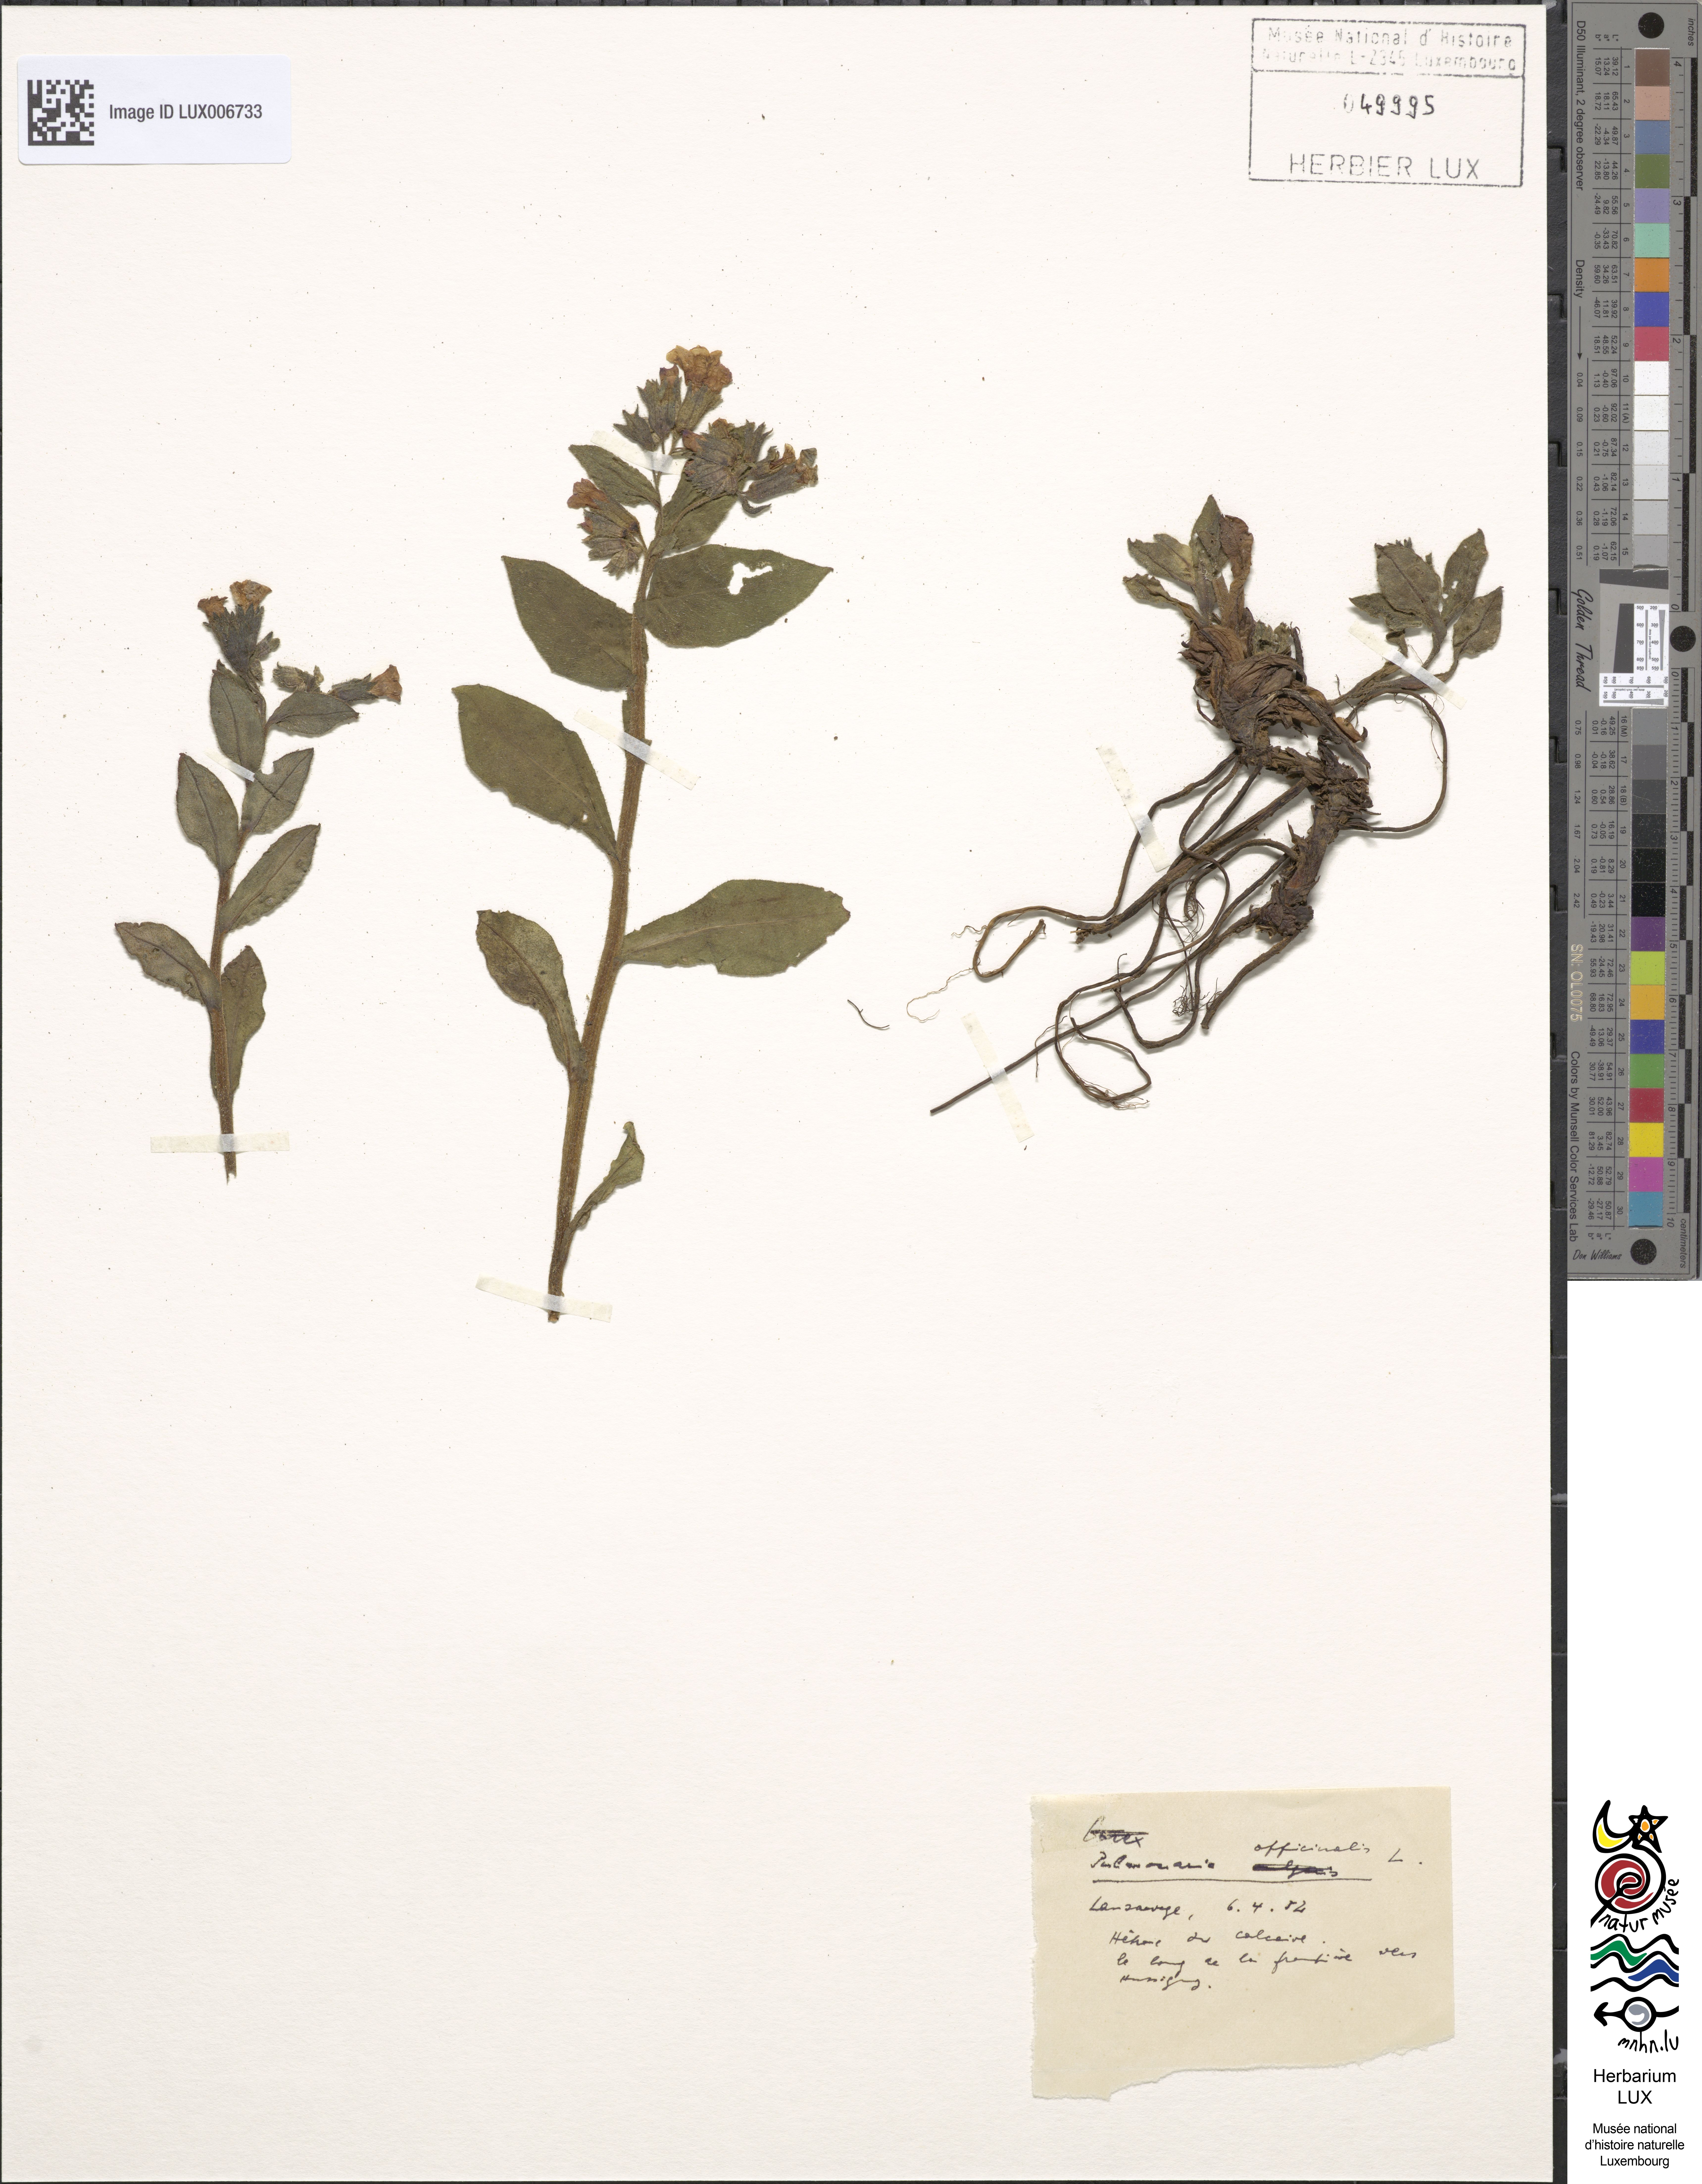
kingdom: Plantae
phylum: Tracheophyta
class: Magnoliopsida
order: Boraginales
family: Boraginaceae
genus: Pulmonaria
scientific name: Pulmonaria officinalis
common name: Lungwort
